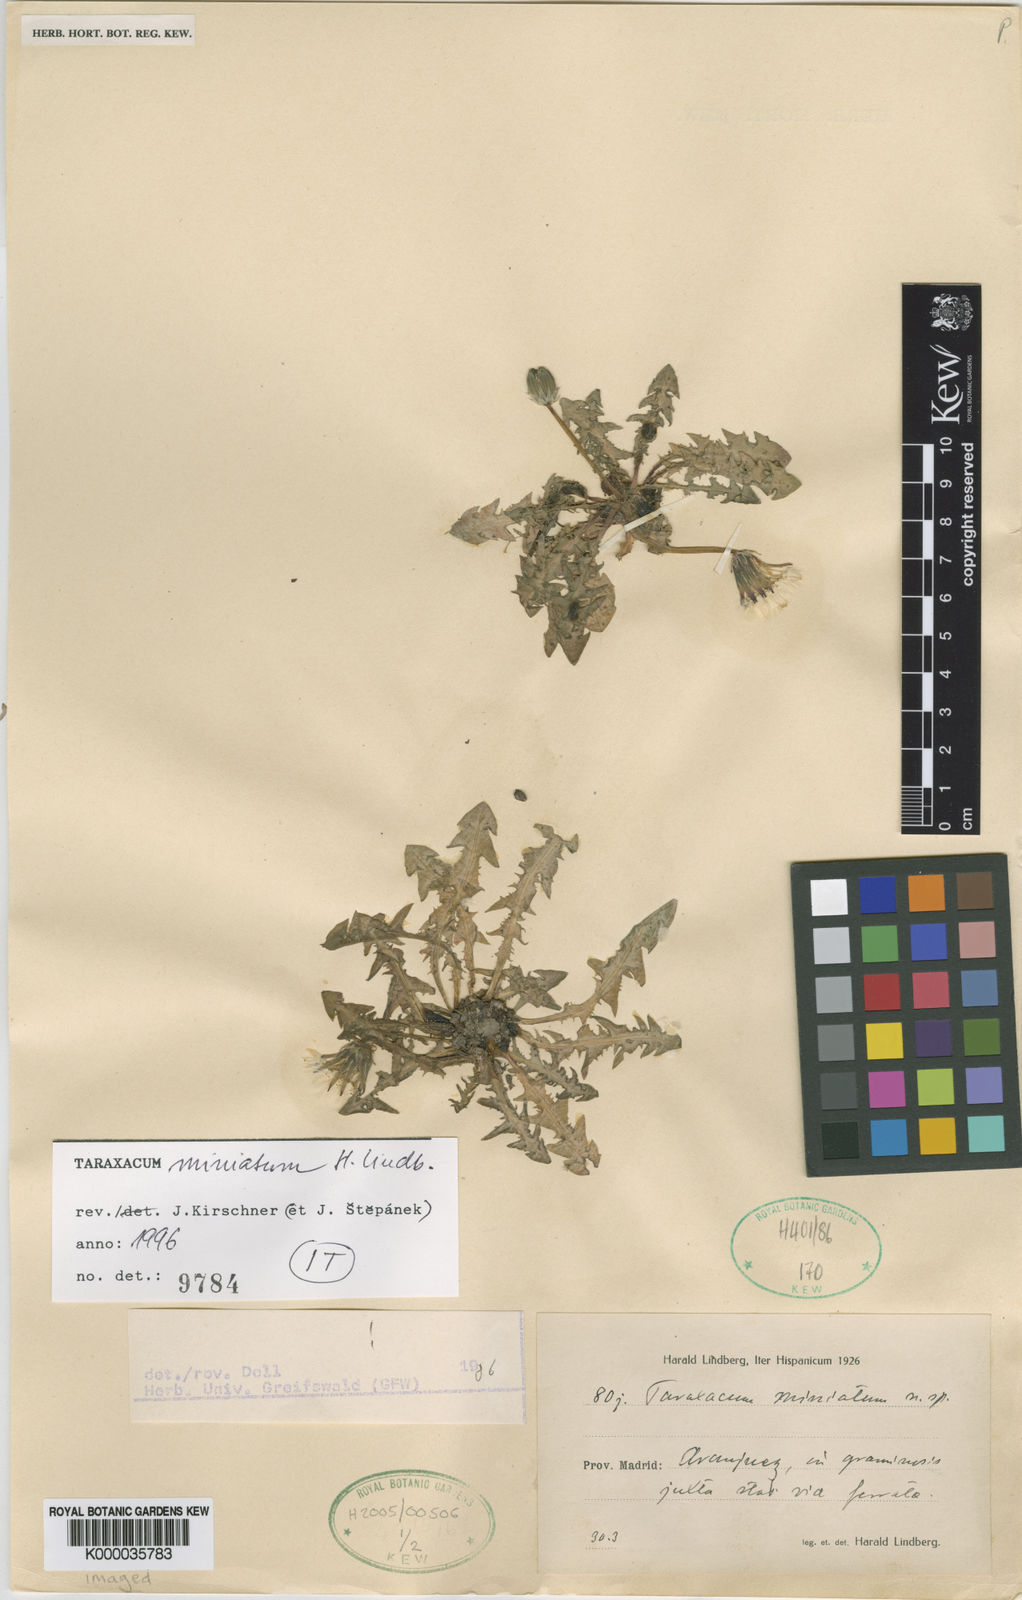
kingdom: Plantae
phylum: Tracheophyta
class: Magnoliopsida
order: Asterales
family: Asteraceae
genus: Taraxacum
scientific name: Taraxacum miniatum
